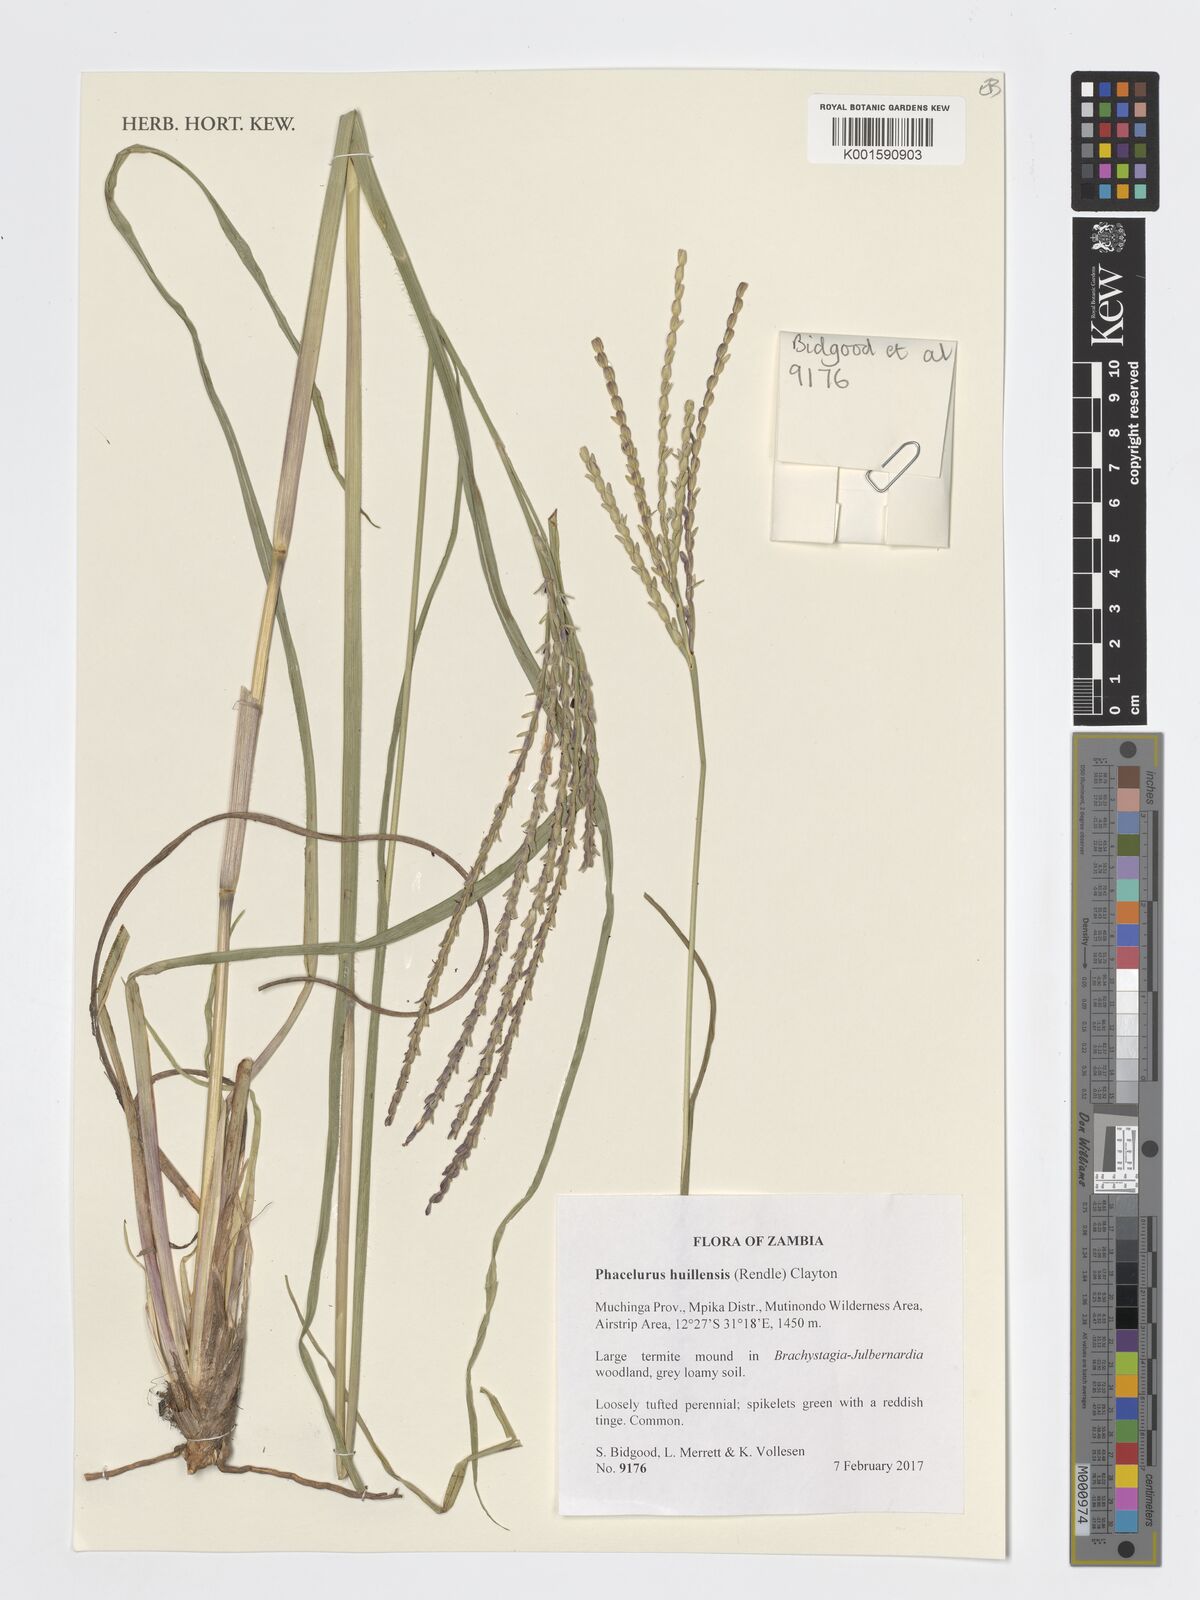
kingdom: Plantae
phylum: Tracheophyta
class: Liliopsida
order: Poales
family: Poaceae
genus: Thyrsia
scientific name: Thyrsia huillensis
